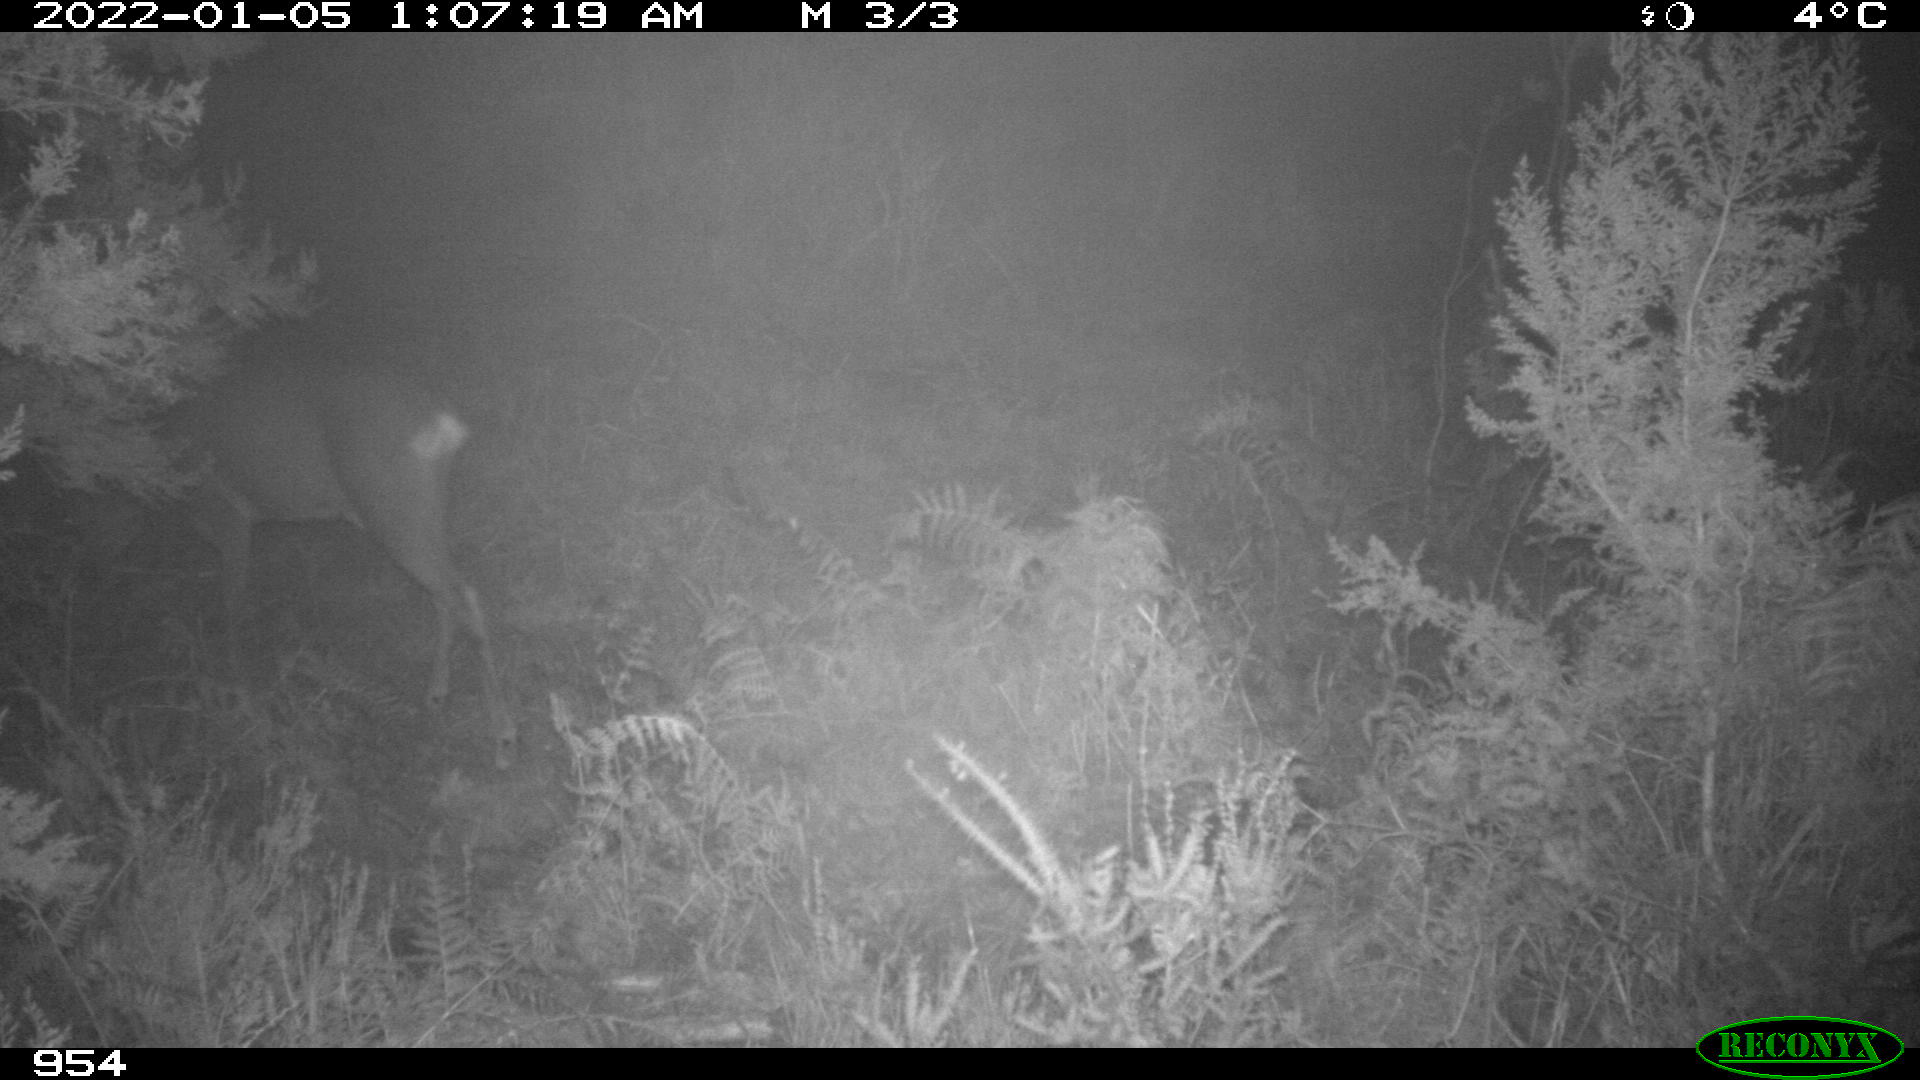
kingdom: Animalia
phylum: Chordata
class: Mammalia
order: Artiodactyla
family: Cervidae
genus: Capreolus
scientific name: Capreolus capreolus
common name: Western roe deer
